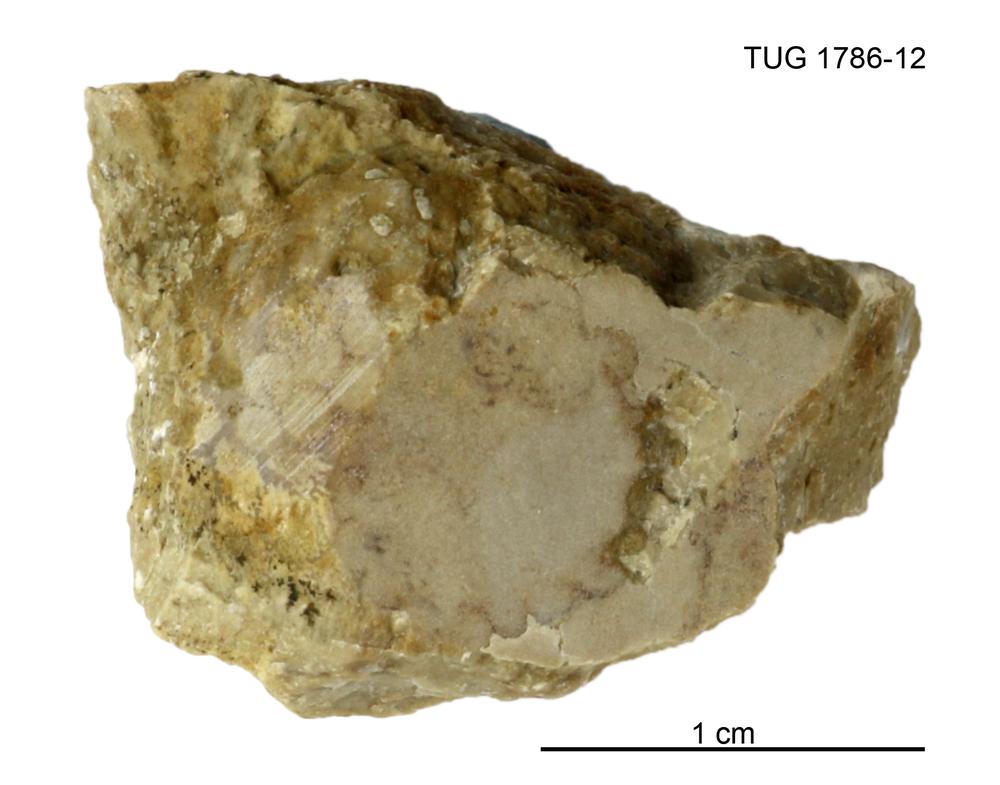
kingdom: Plantae
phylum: Chlorophyta
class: Ulvophyceae
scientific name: Ulvophyceae
